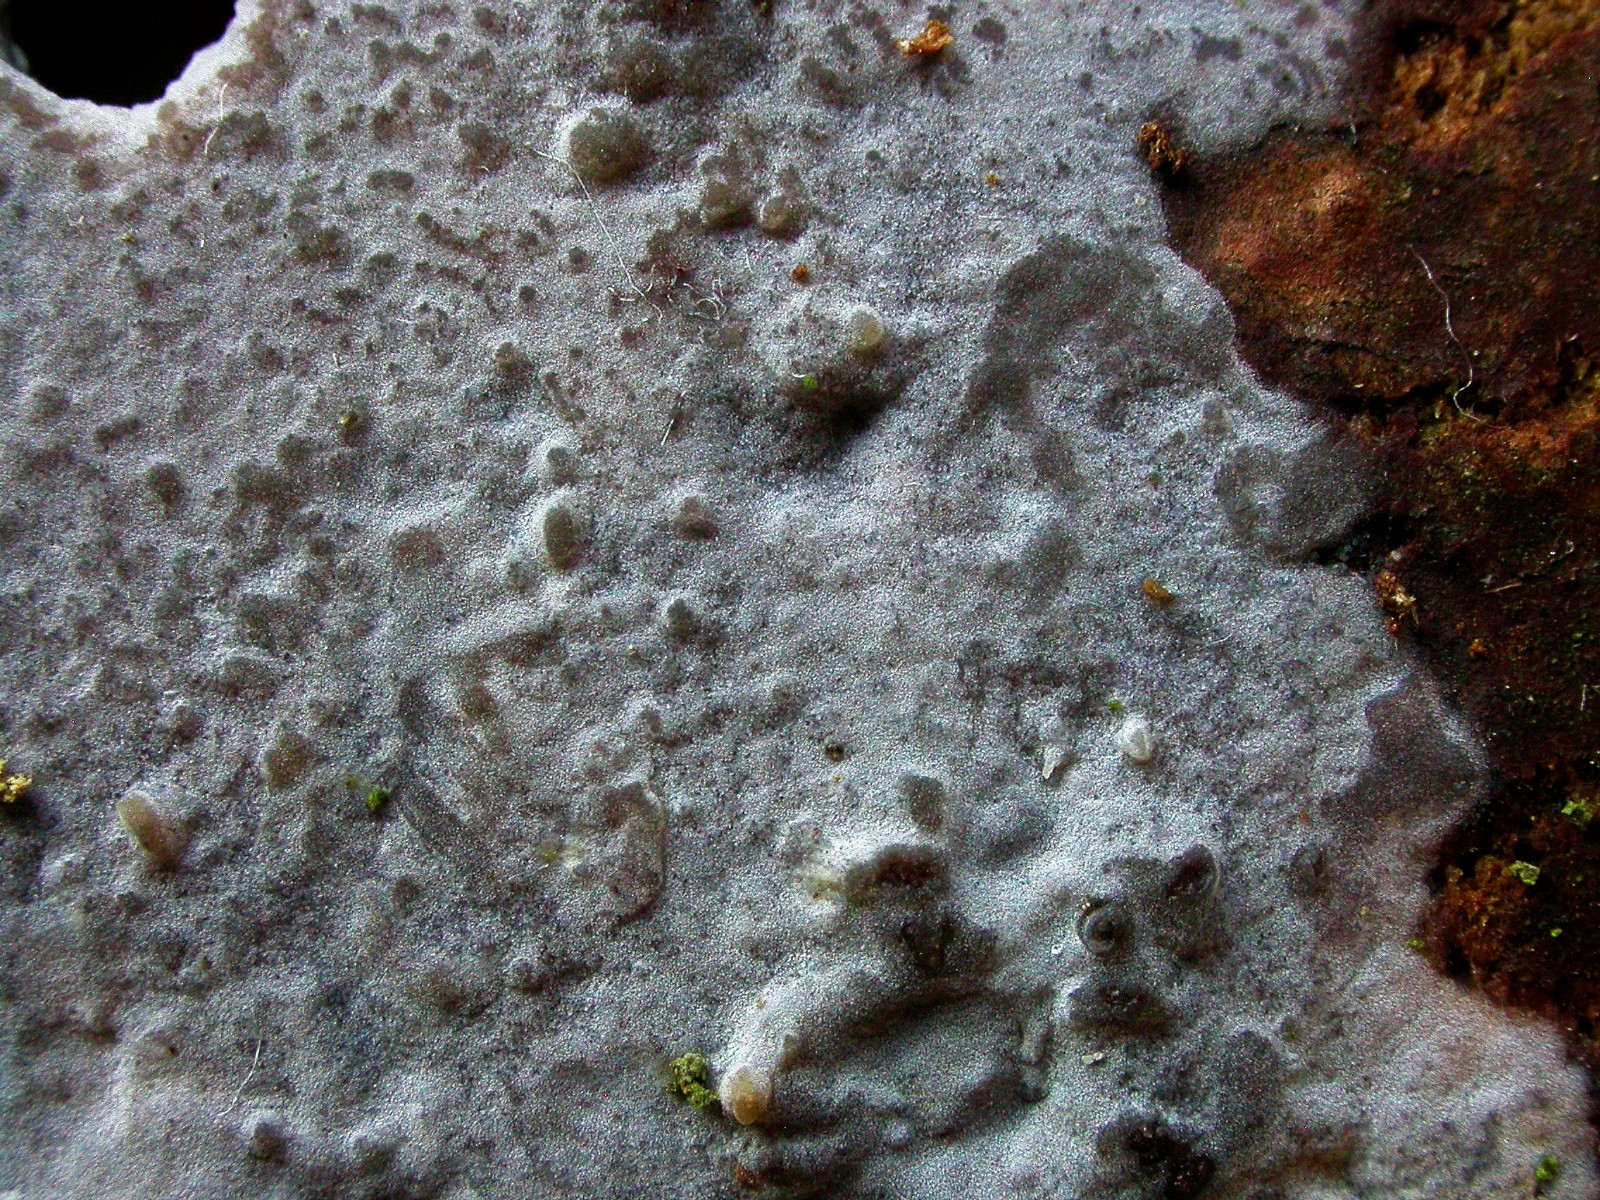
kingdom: Fungi
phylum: Basidiomycota
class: Agaricomycetes
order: Sebacinales
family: Sebacinaceae
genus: Sebacina
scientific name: Sebacina grisea
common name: blågrå bævrehinde
